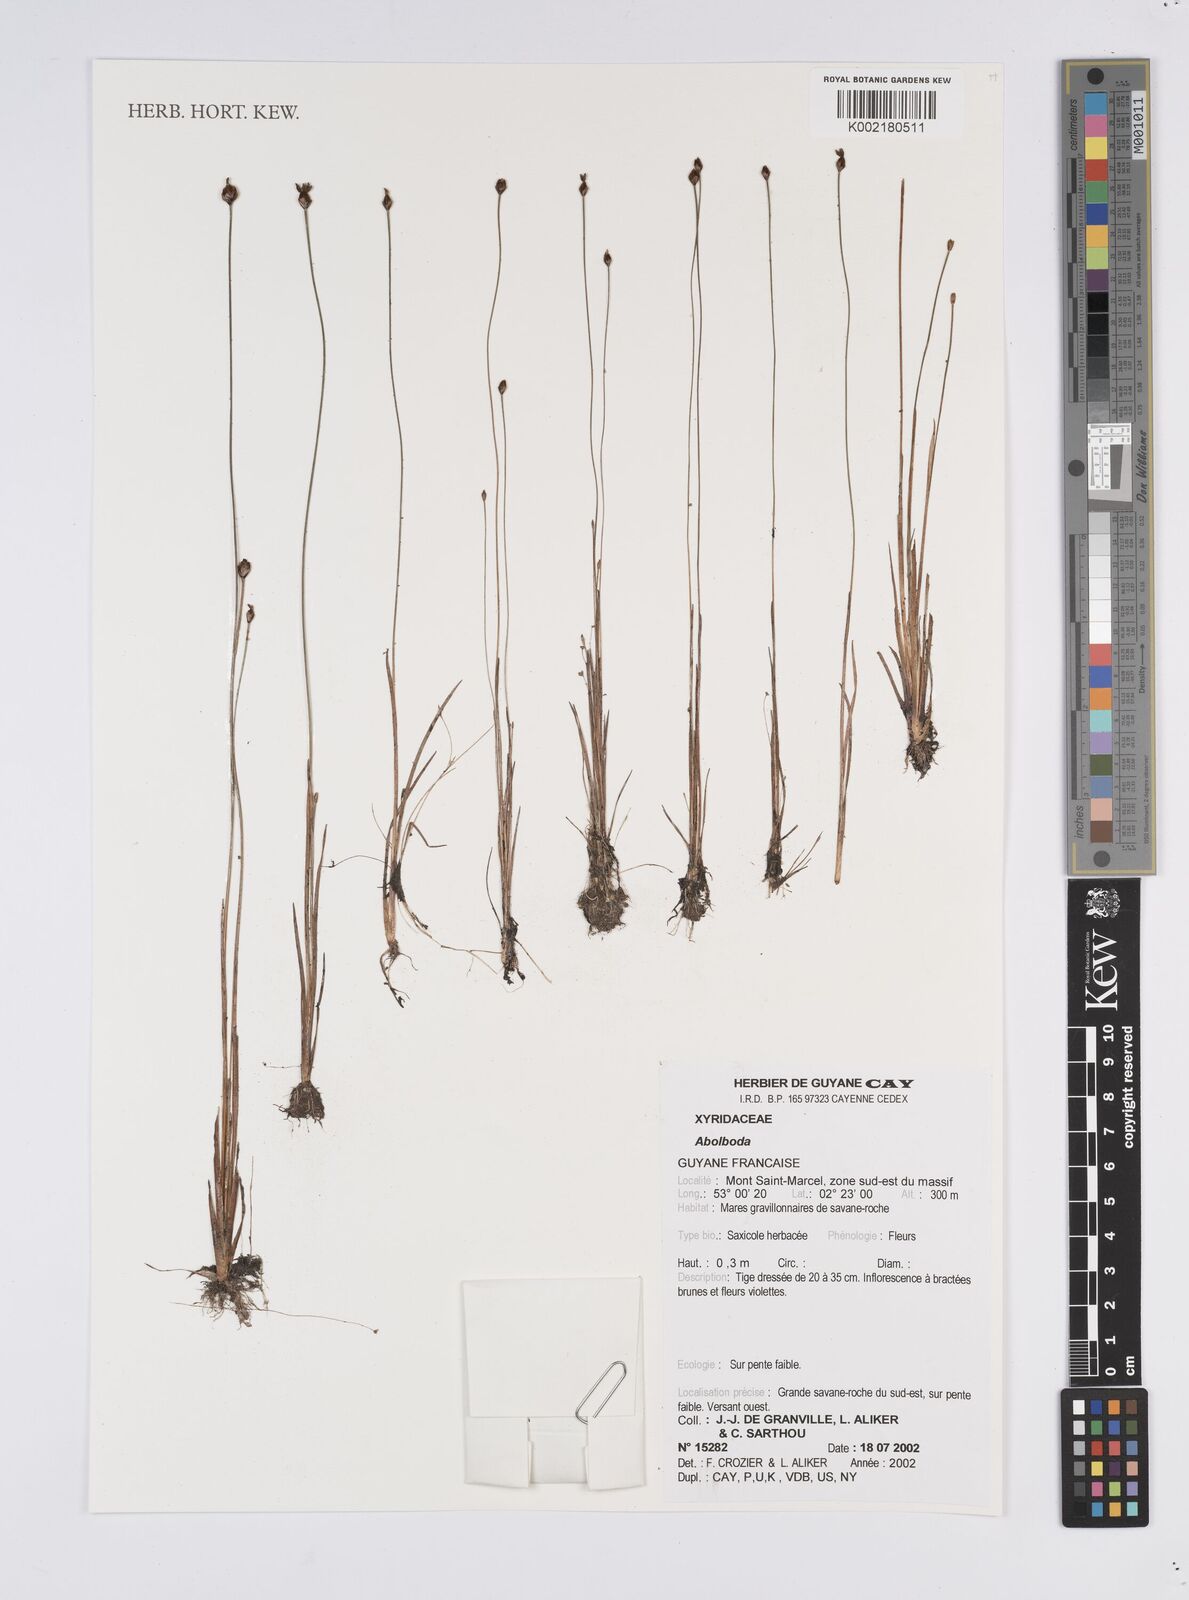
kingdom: Plantae
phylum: Tracheophyta
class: Liliopsida
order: Poales
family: Xyridaceae
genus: Abolboda
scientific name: Abolboda
